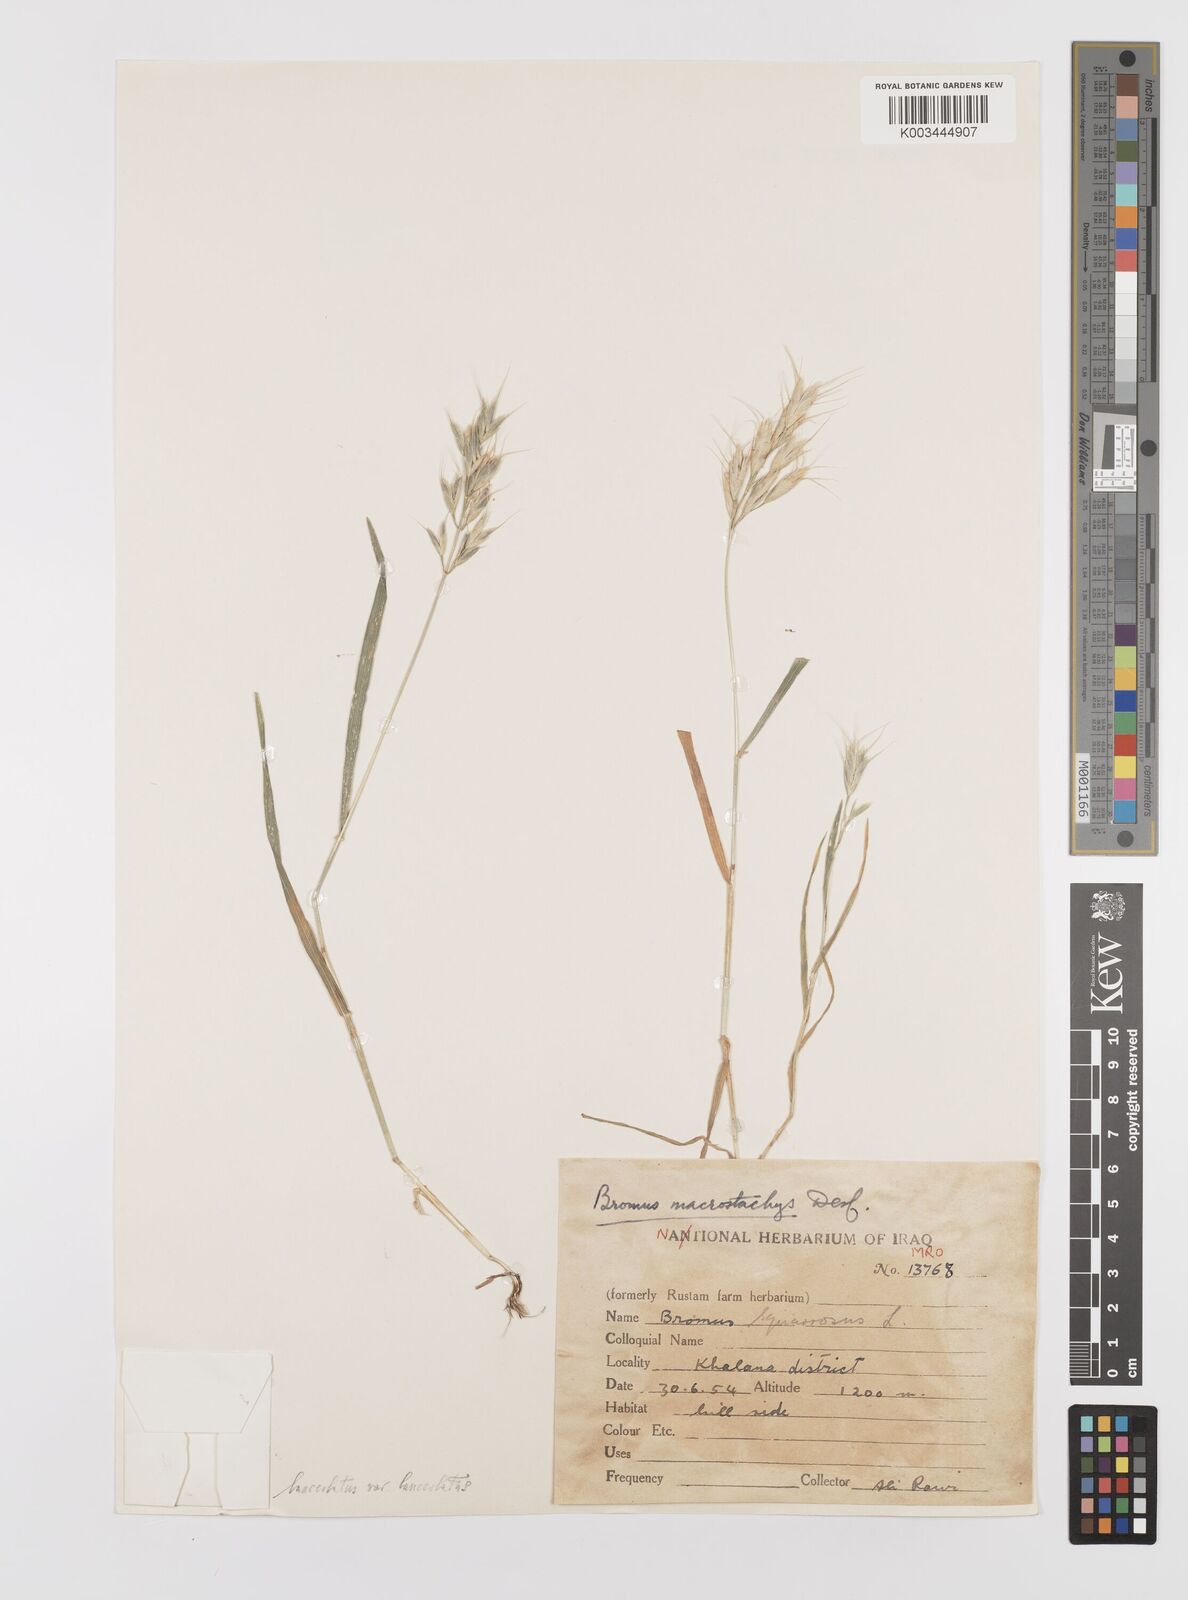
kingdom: Plantae
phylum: Tracheophyta
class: Liliopsida
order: Poales
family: Poaceae
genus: Bromus
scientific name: Bromus lanceolatus
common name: Mediterranean brome
